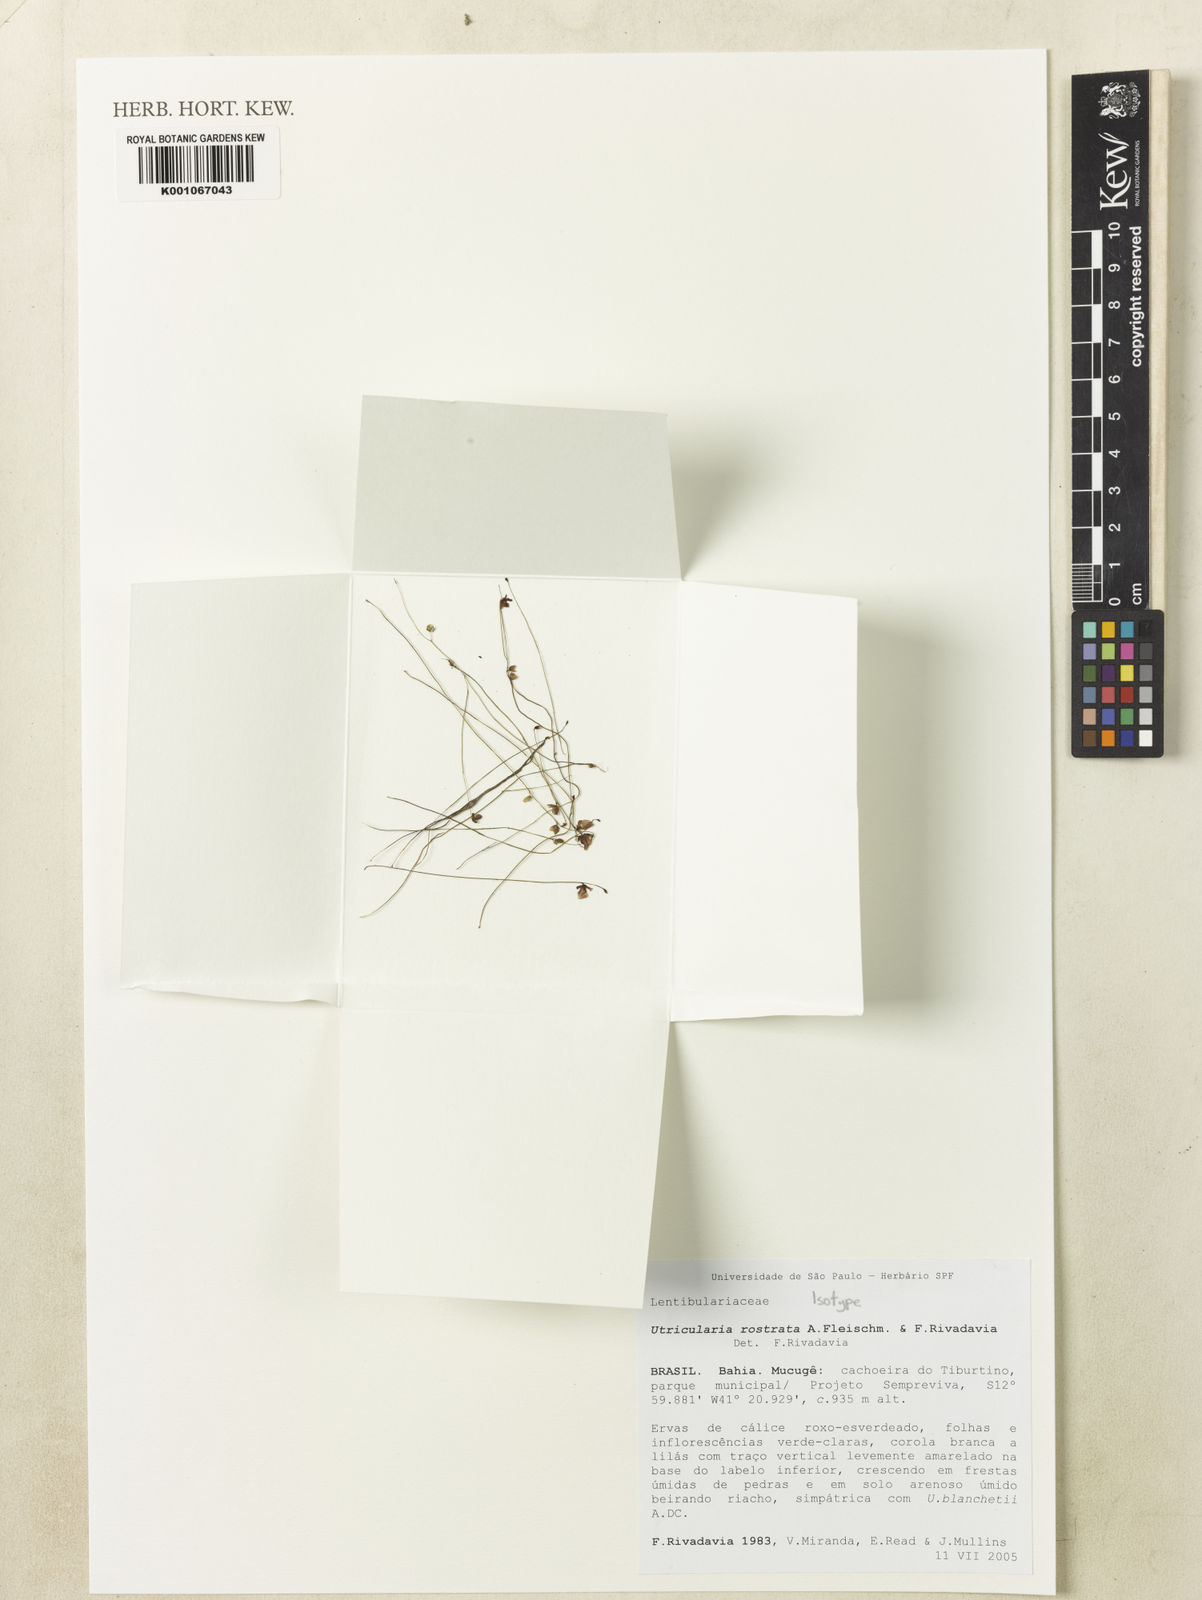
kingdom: Plantae
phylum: Tracheophyta
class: Magnoliopsida
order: Lamiales
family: Lentibulariaceae
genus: Utricularia
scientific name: Utricularia rostrata
